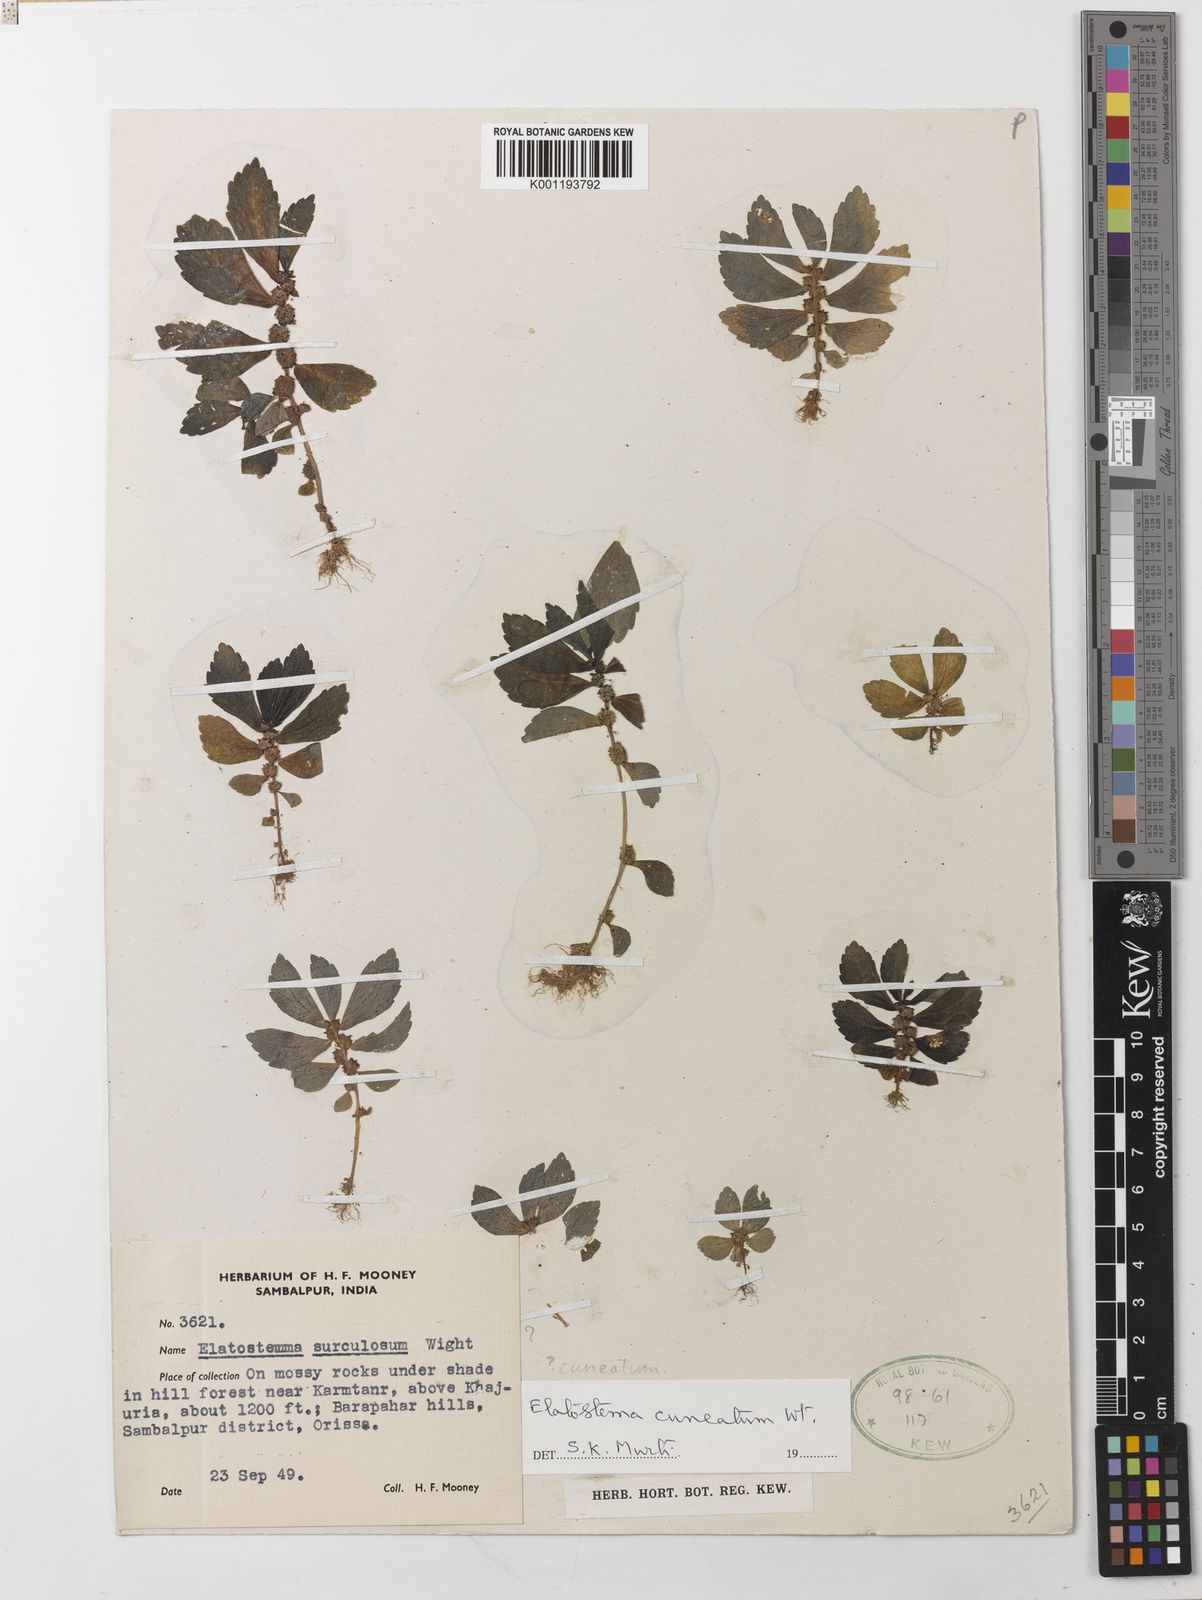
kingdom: Plantae
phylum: Tracheophyta
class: Magnoliopsida
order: Rosales
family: Urticaceae
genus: Elatostema
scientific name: Elatostema cuneatum
